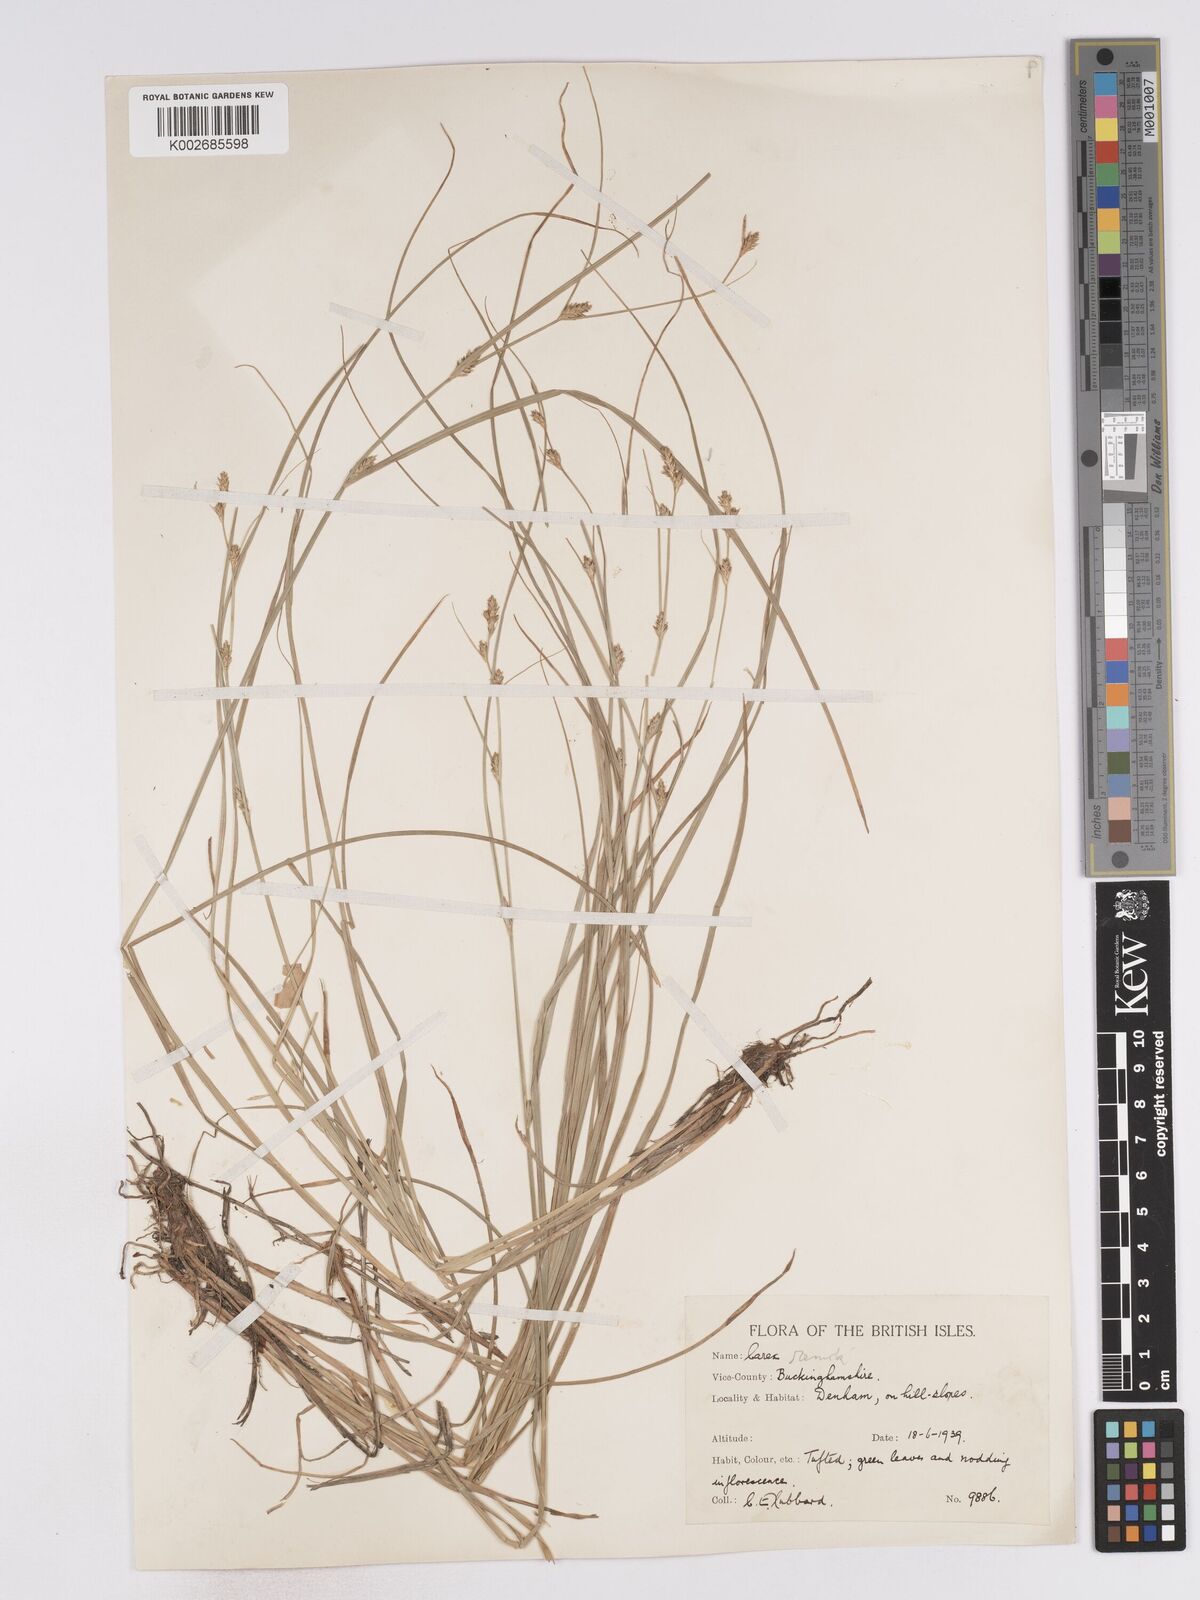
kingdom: Plantae
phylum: Tracheophyta
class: Liliopsida
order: Poales
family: Cyperaceae
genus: Carex
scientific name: Carex remota
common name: Remote sedge
